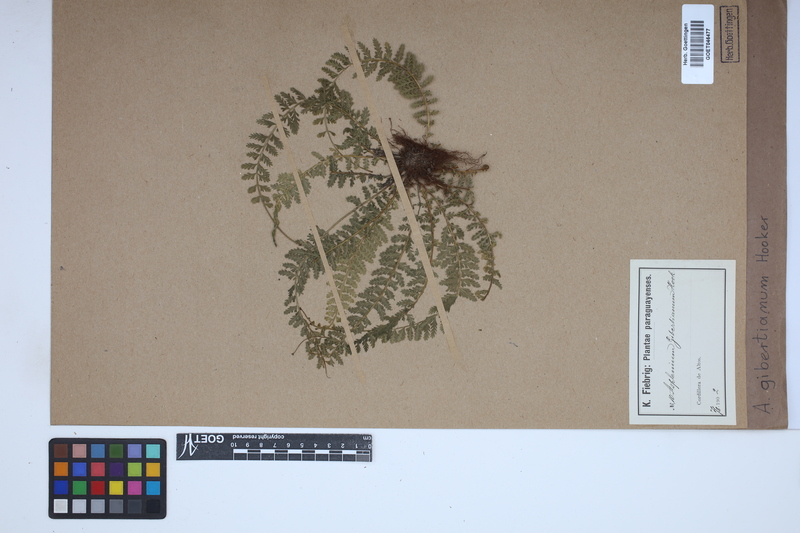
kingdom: Plantae
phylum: Tracheophyta
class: Polypodiopsida
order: Polypodiales
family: Aspleniaceae
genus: Asplenium
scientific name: Asplenium depauperatum
